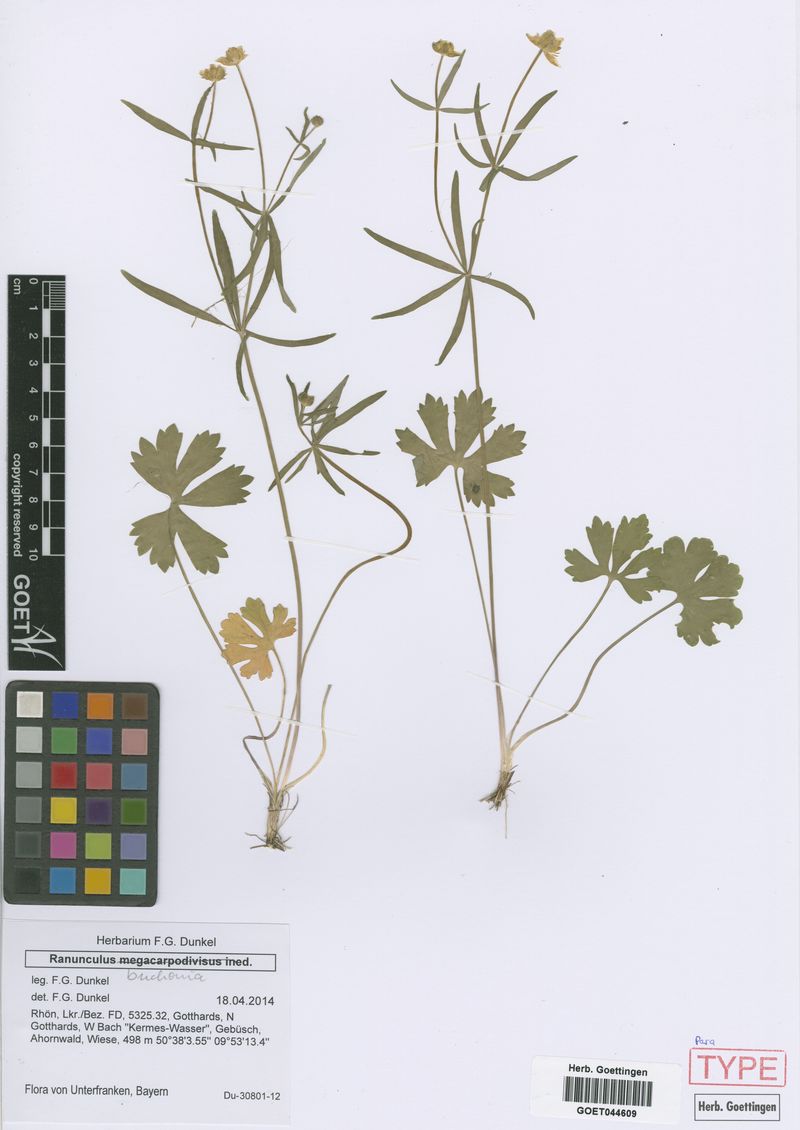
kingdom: Plantae
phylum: Tracheophyta
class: Magnoliopsida
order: Ranunculales
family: Ranunculaceae
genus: Ranunculus
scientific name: Ranunculus buchoniae
